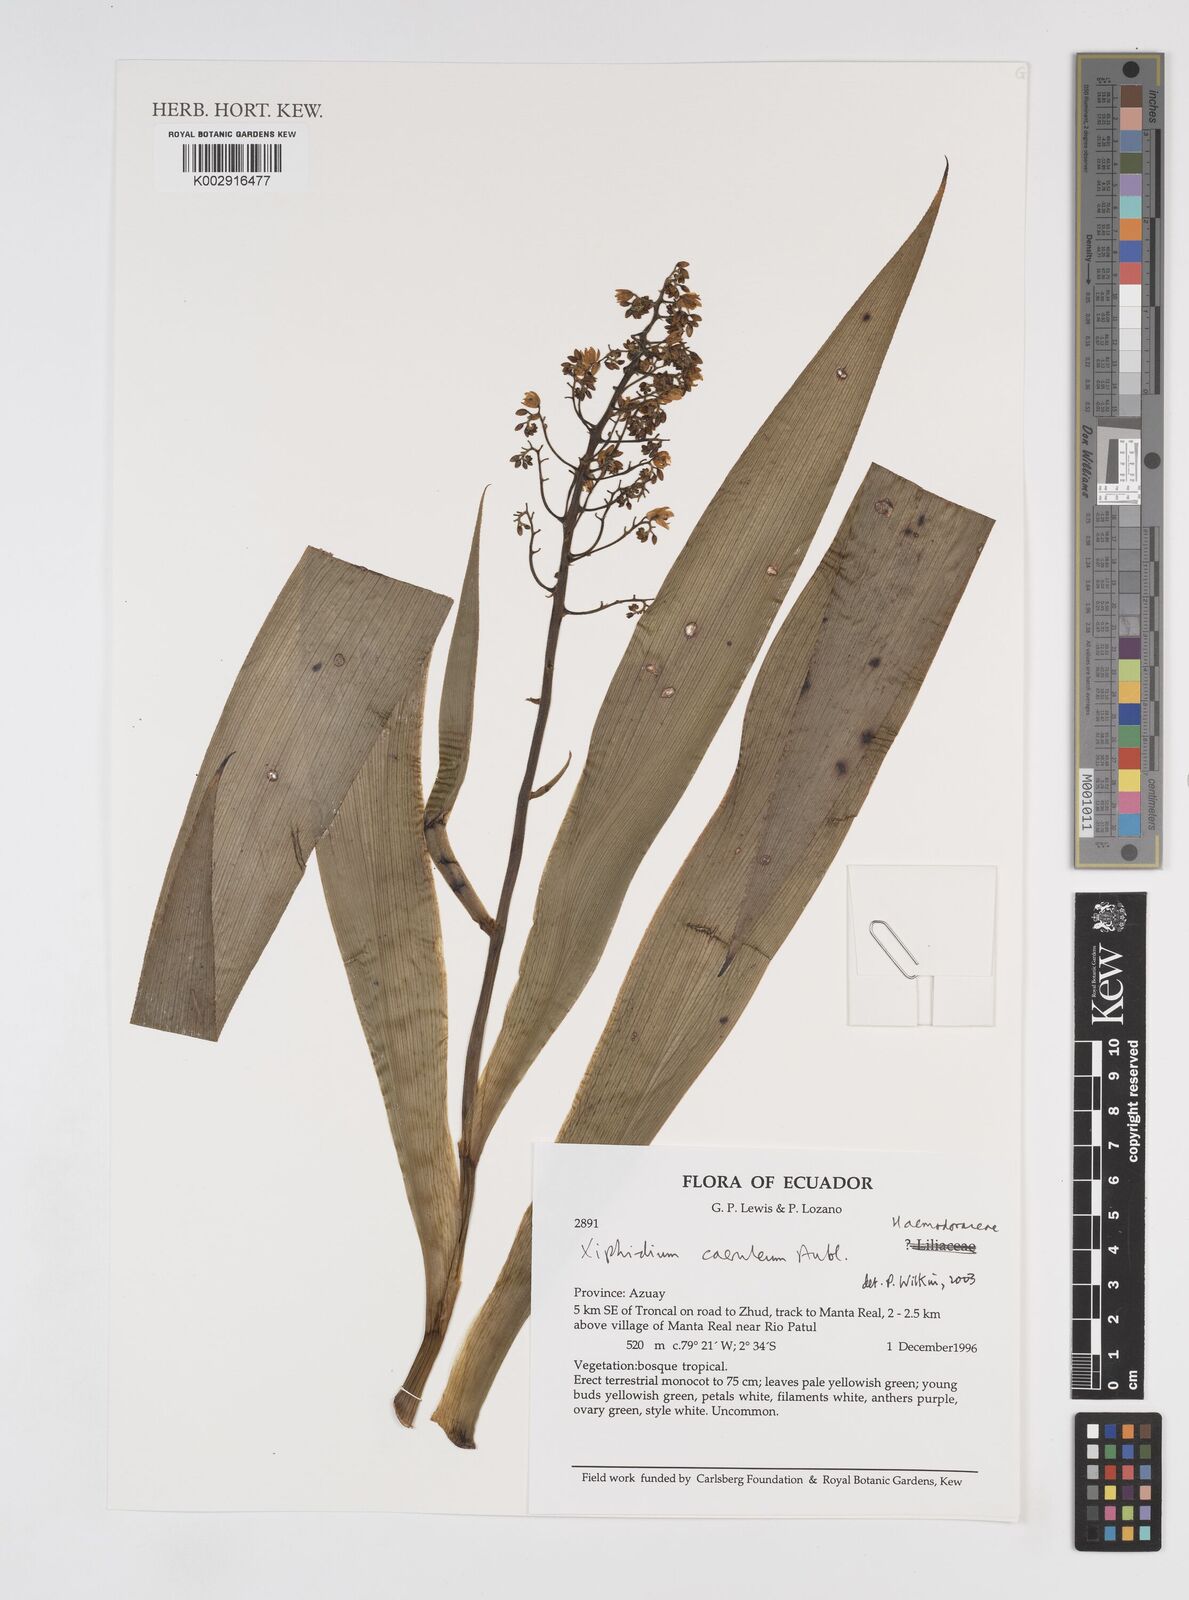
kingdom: Plantae
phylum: Tracheophyta
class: Liliopsida
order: Commelinales
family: Haemodoraceae
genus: Xiphidium
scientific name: Xiphidium caeruleum
